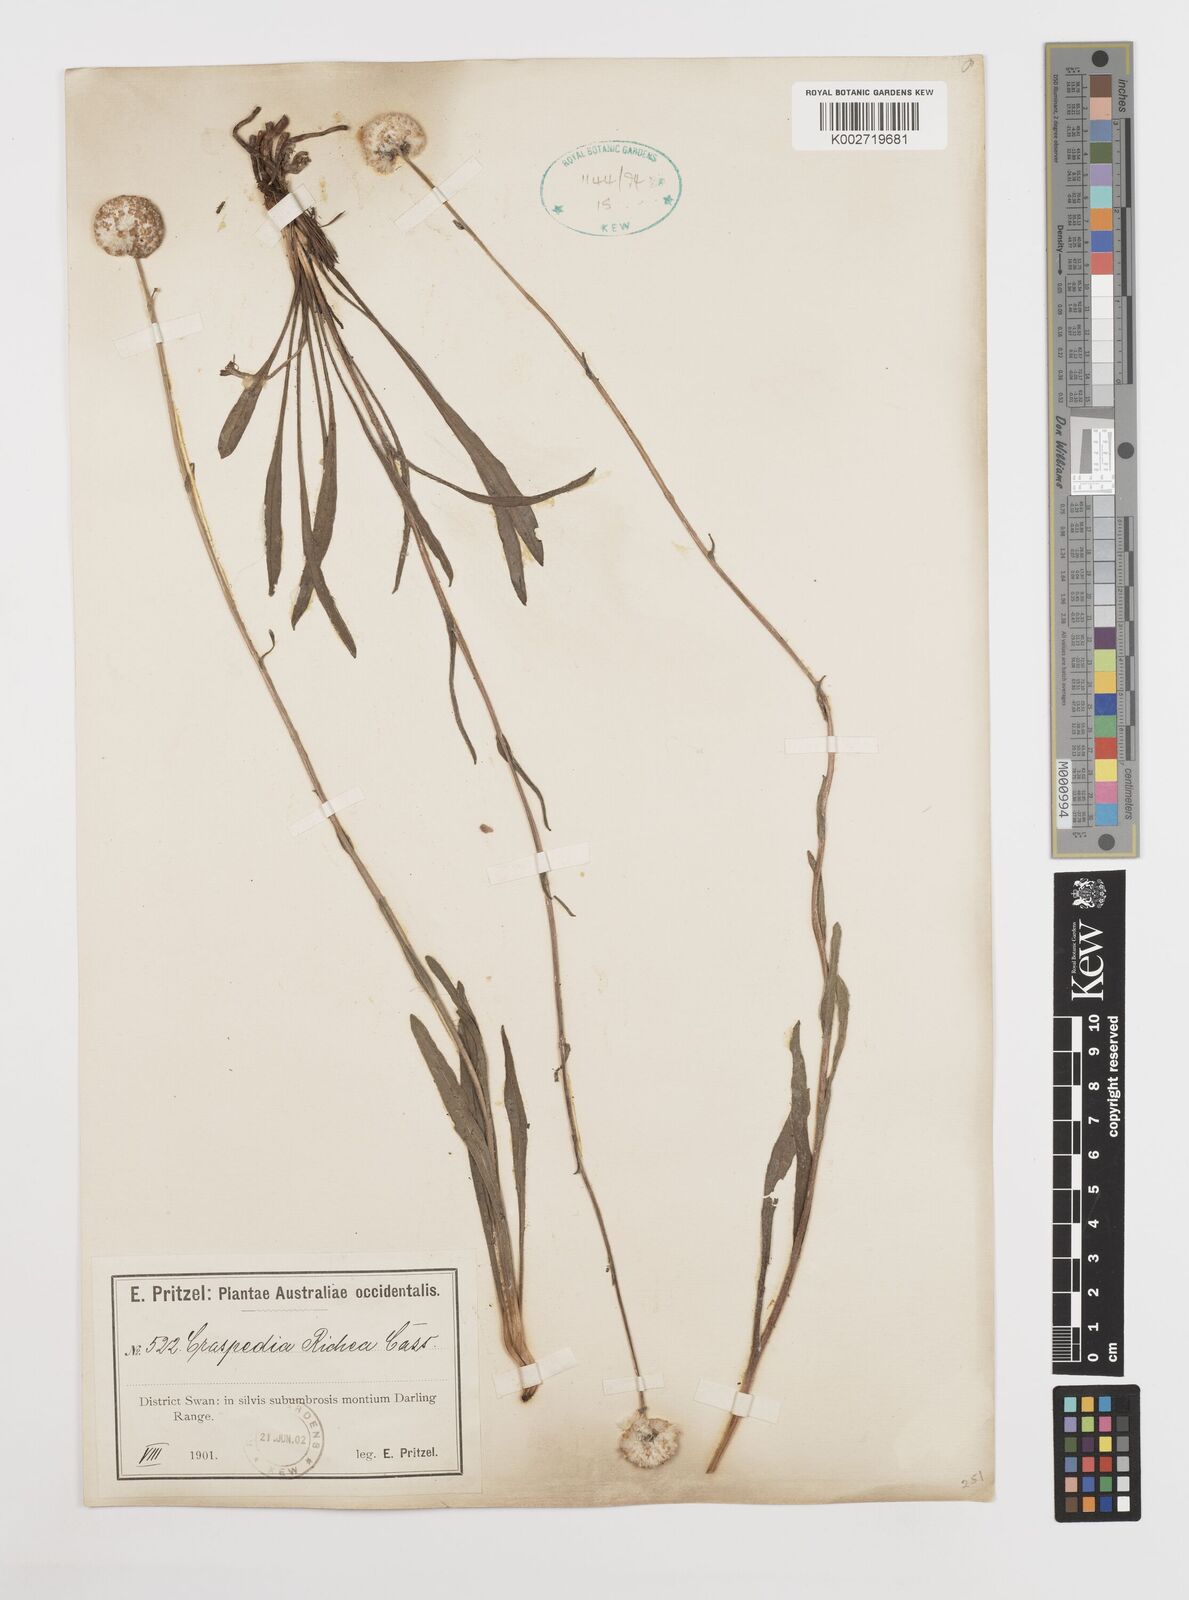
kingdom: Plantae
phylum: Tracheophyta
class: Magnoliopsida
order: Asterales
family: Asteraceae
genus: Craspedia
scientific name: Craspedia glauca
